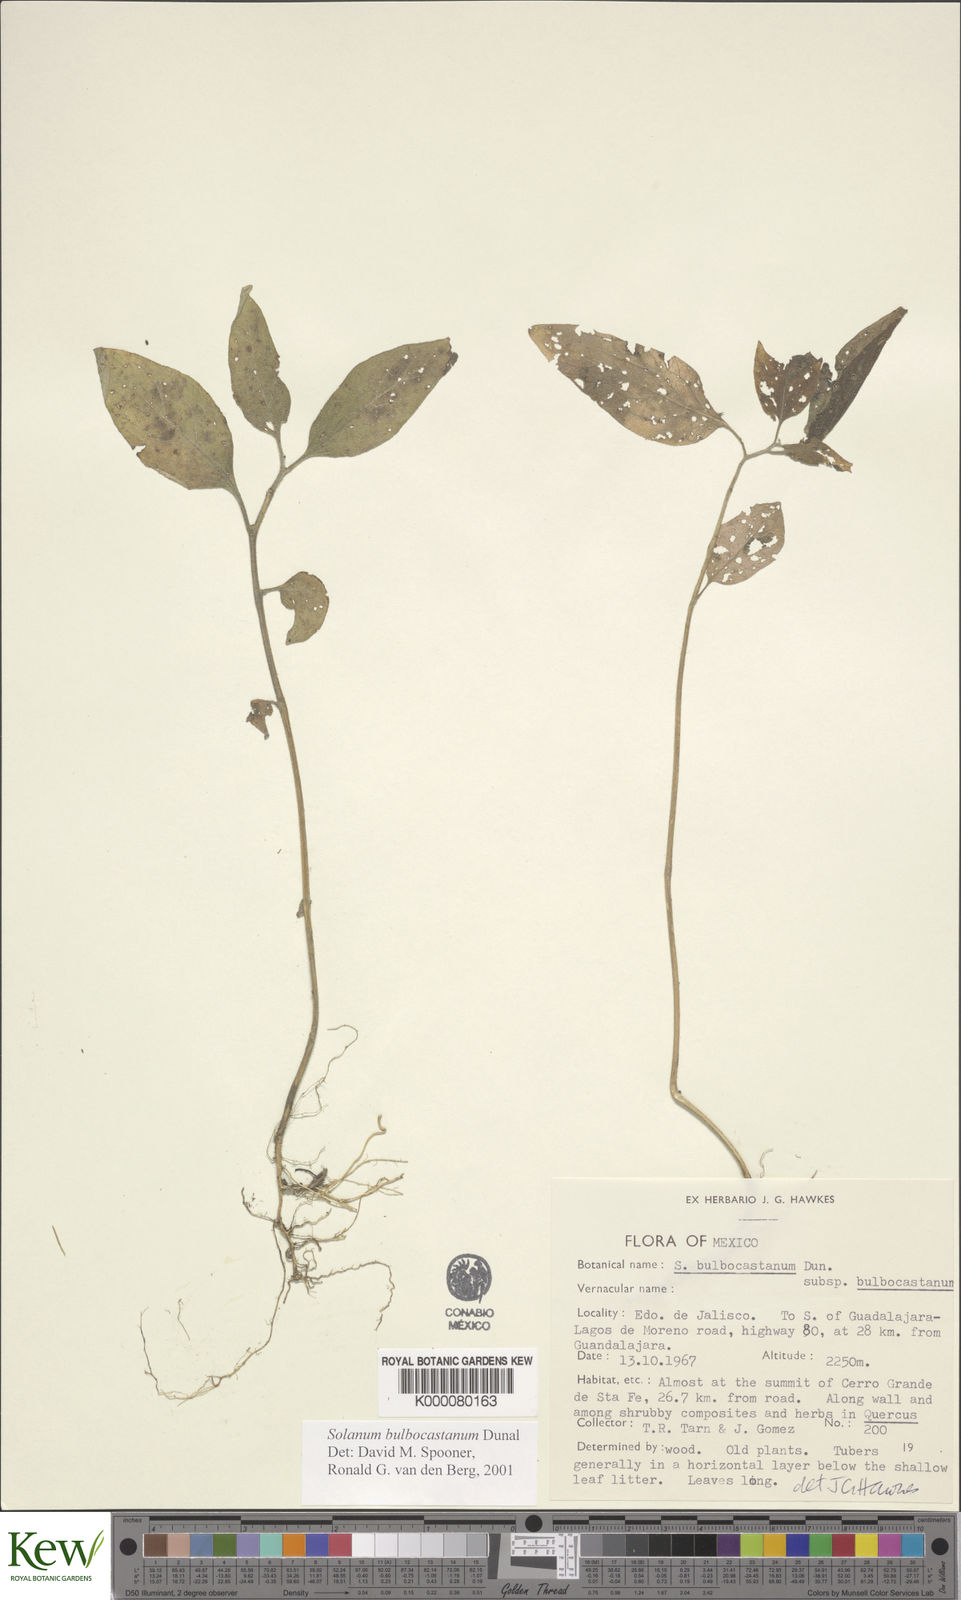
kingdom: Plantae
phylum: Tracheophyta
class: Magnoliopsida
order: Solanales
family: Solanaceae
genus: Solanum
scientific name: Solanum bulbocastanum
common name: Ornamental nightshade
